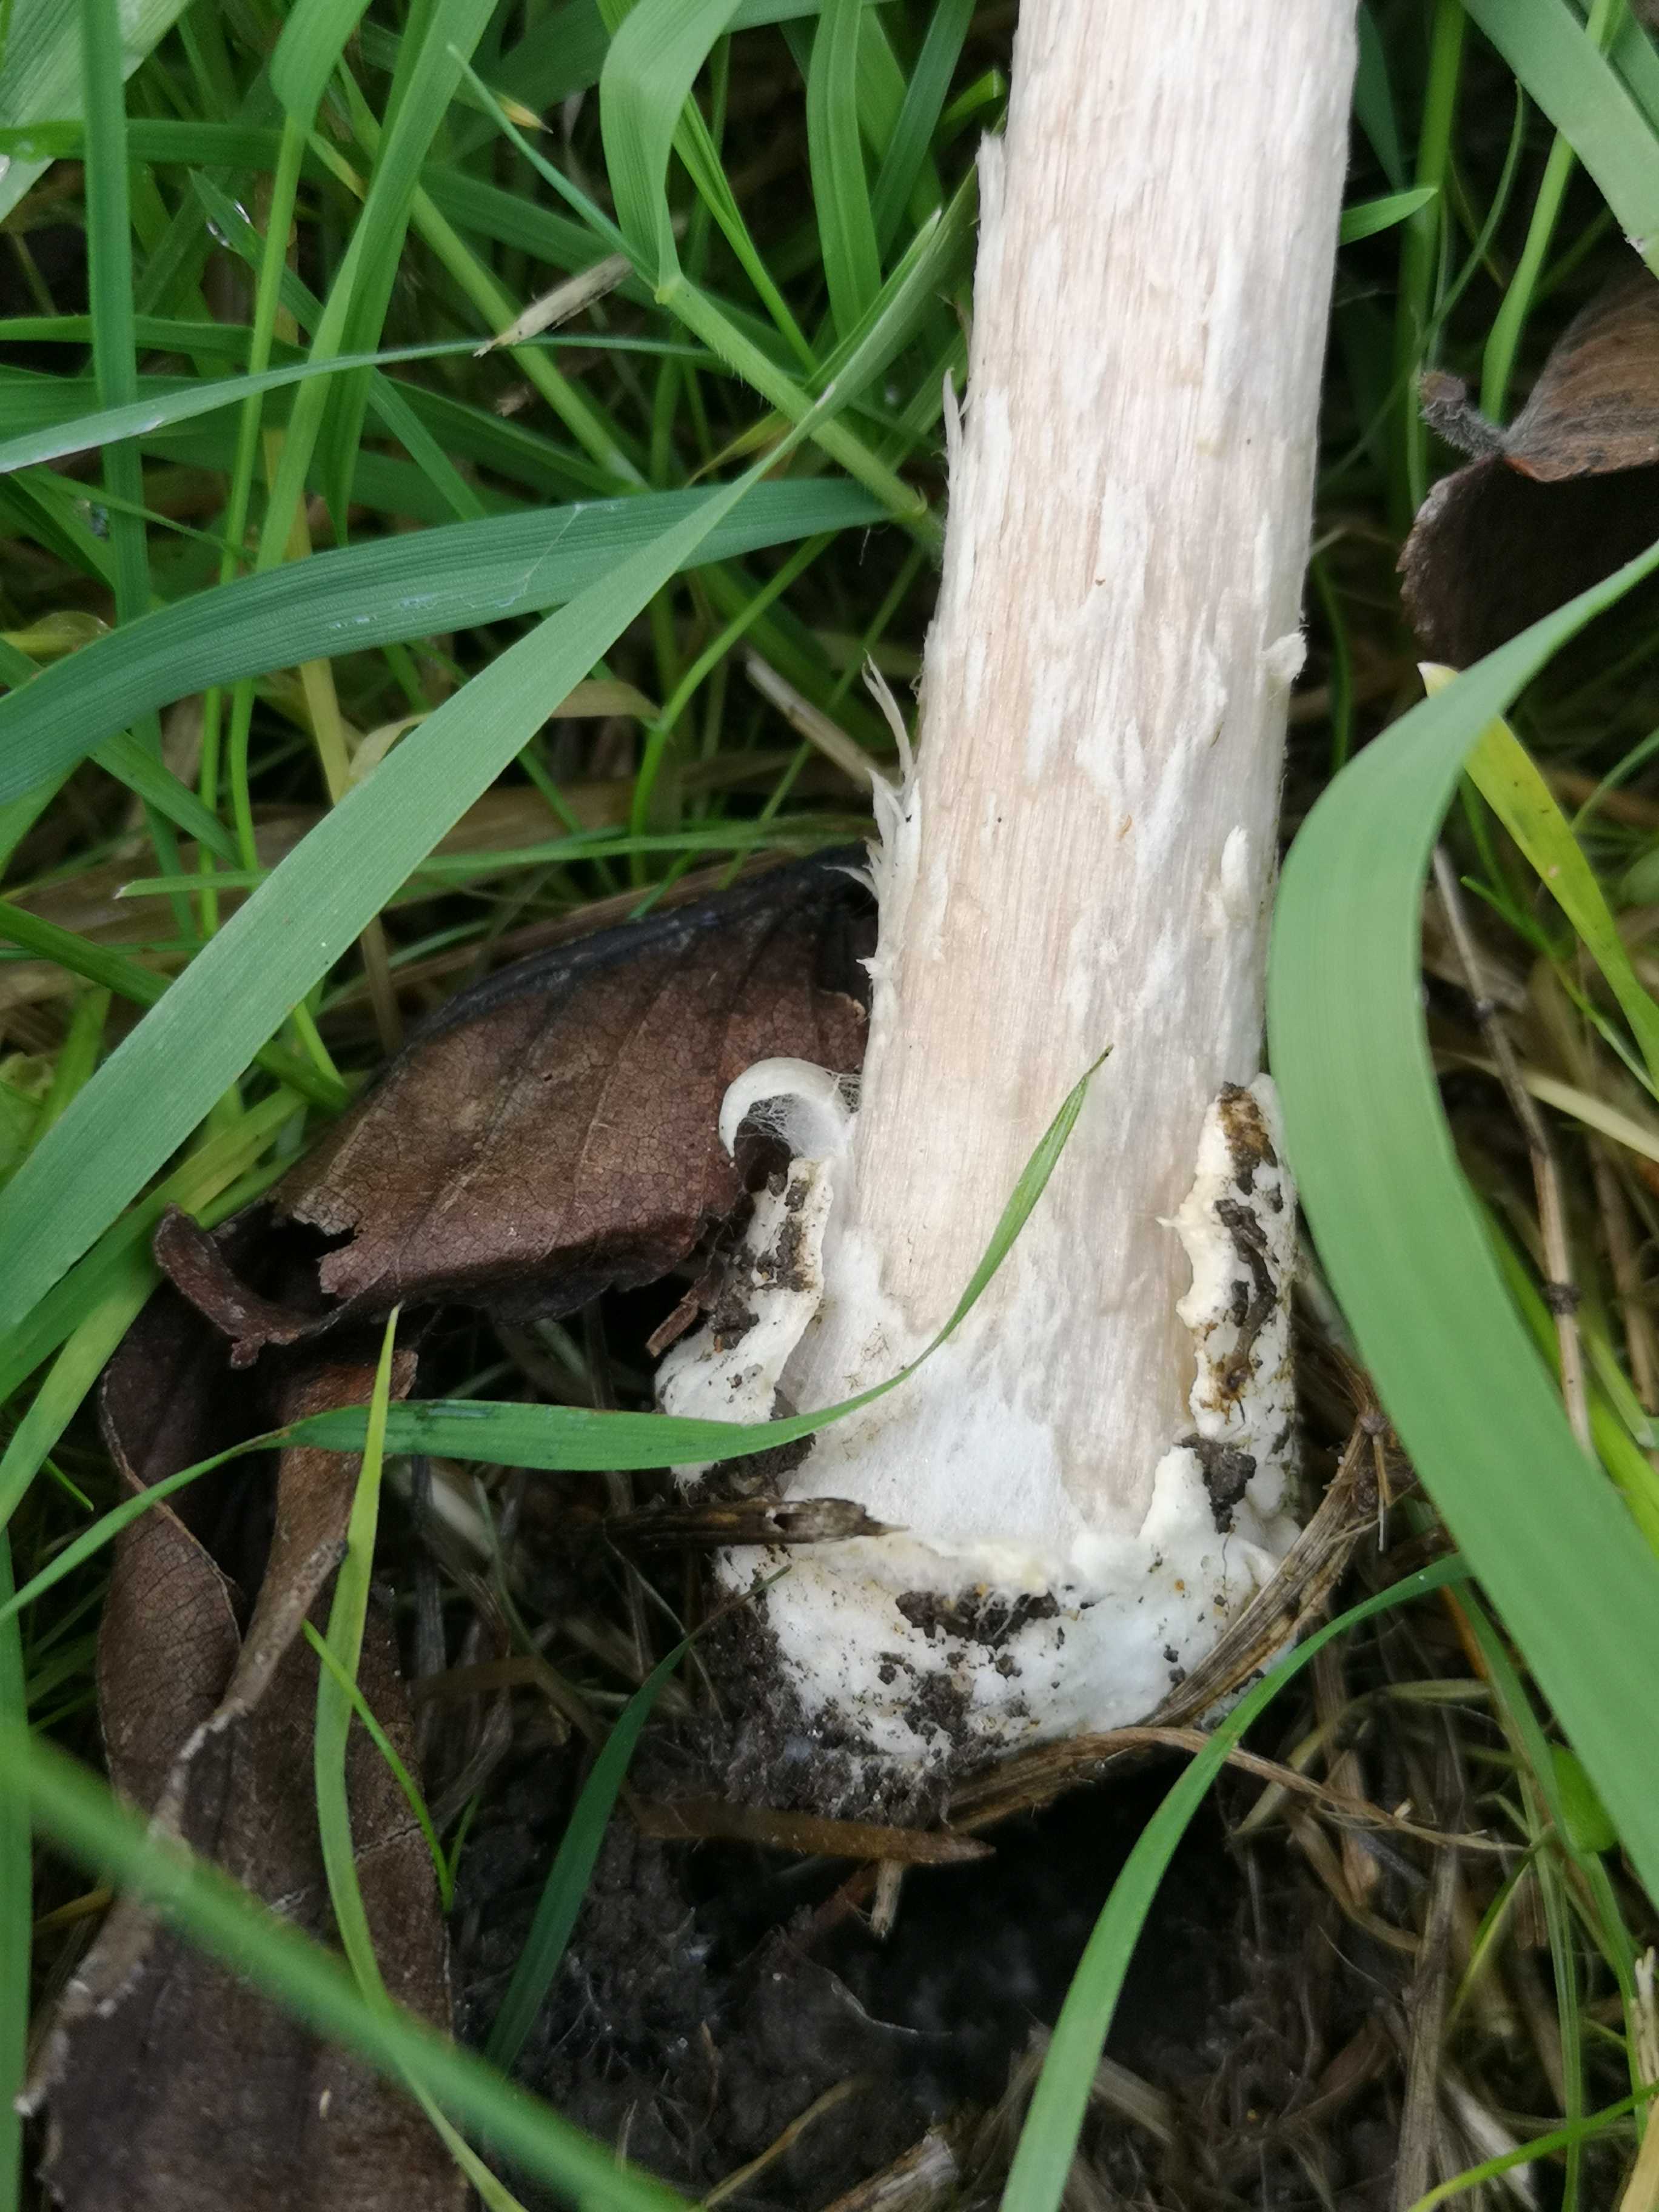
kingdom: Fungi
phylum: Basidiomycota
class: Agaricomycetes
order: Agaricales
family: Pluteaceae
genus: Volvopluteus
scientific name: Volvopluteus gloiocephalus
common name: høj posesvamp
